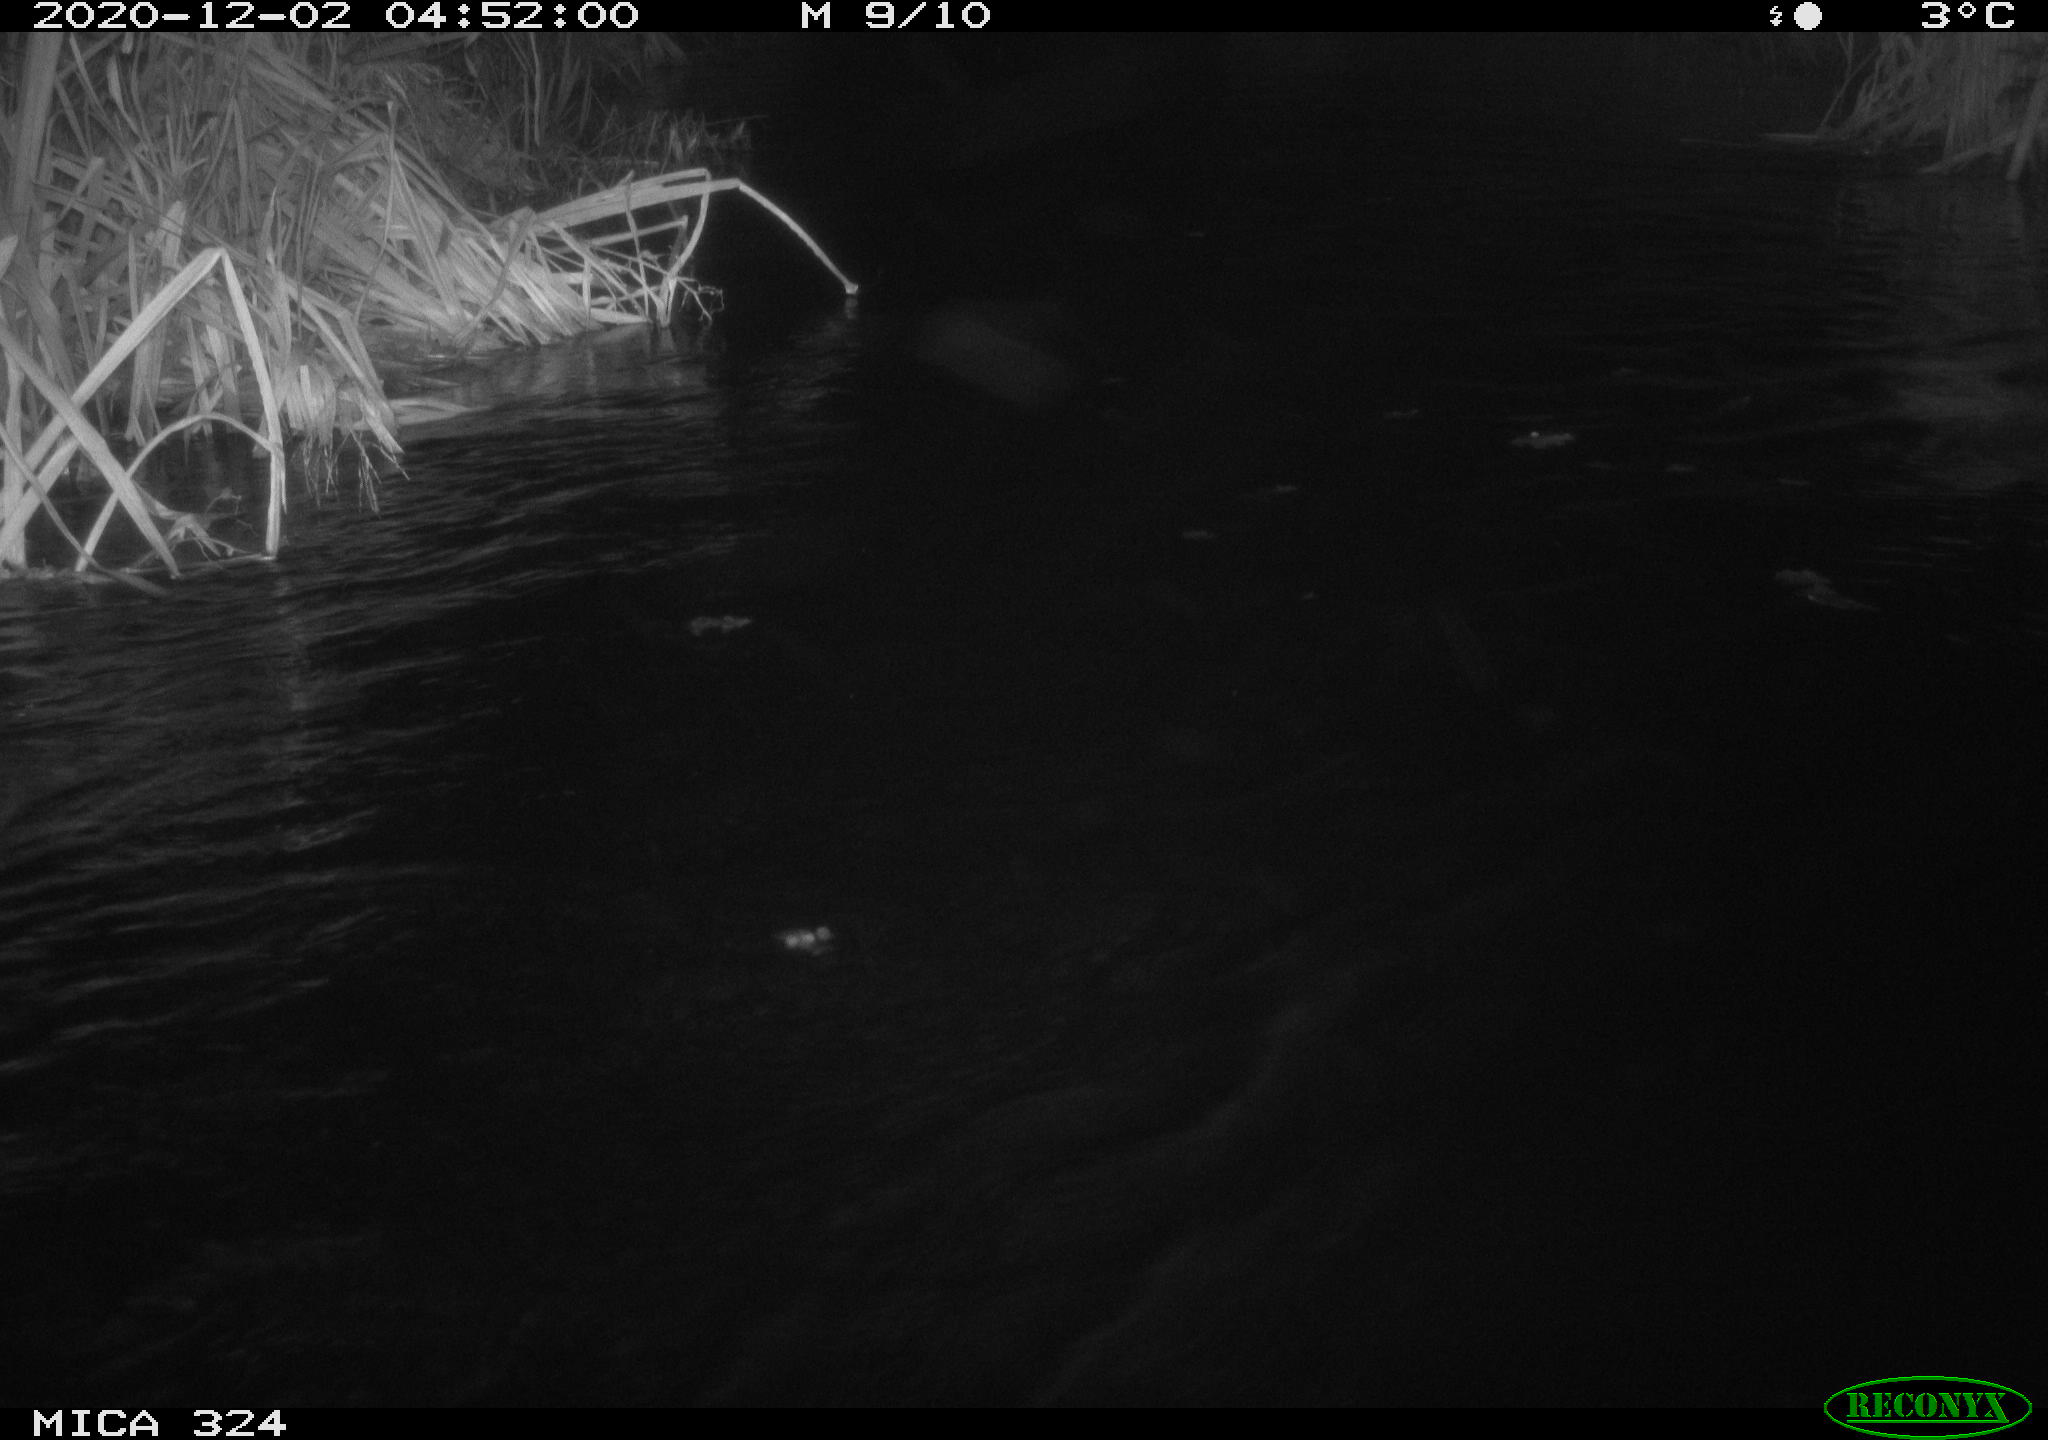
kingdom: Animalia
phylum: Chordata
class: Mammalia
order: Rodentia
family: Castoridae
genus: Castor
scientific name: Castor fiber
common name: Eurasian beaver
